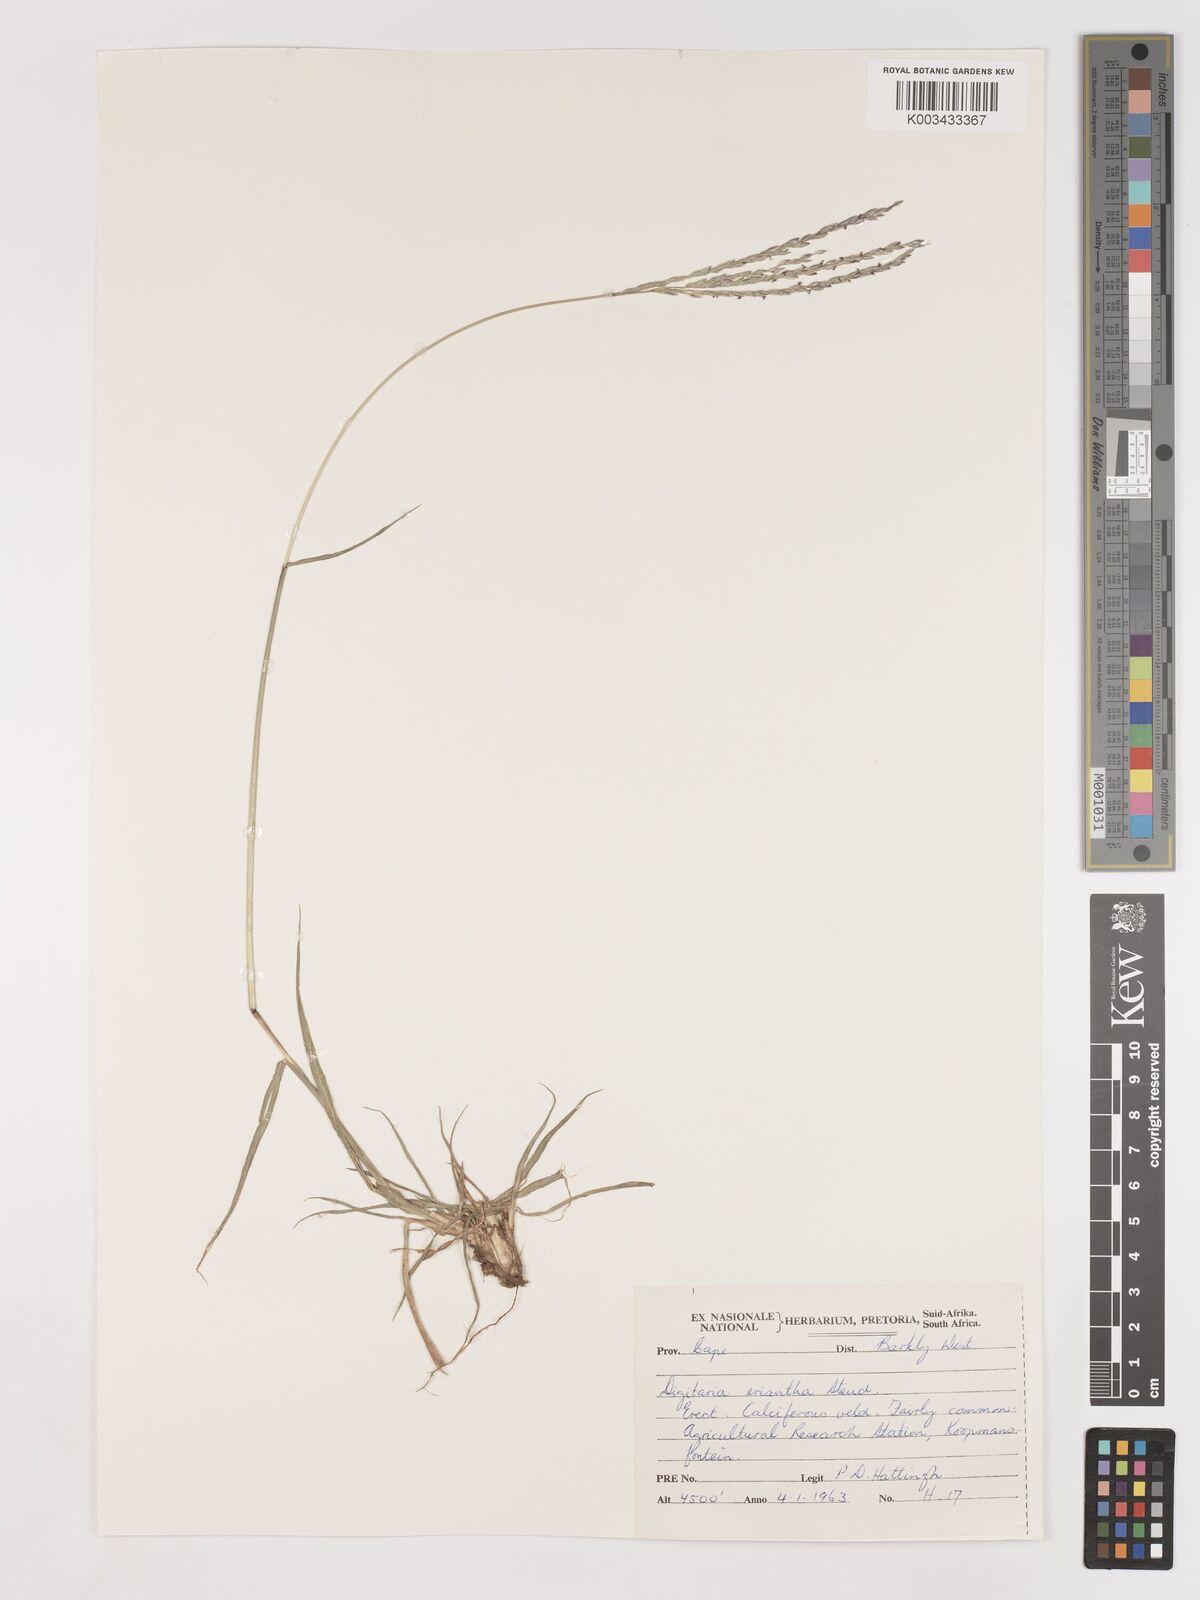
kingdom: Plantae
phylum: Tracheophyta
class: Liliopsida
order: Poales
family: Poaceae
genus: Digitaria
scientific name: Digitaria eriantha
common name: Digitgrass
